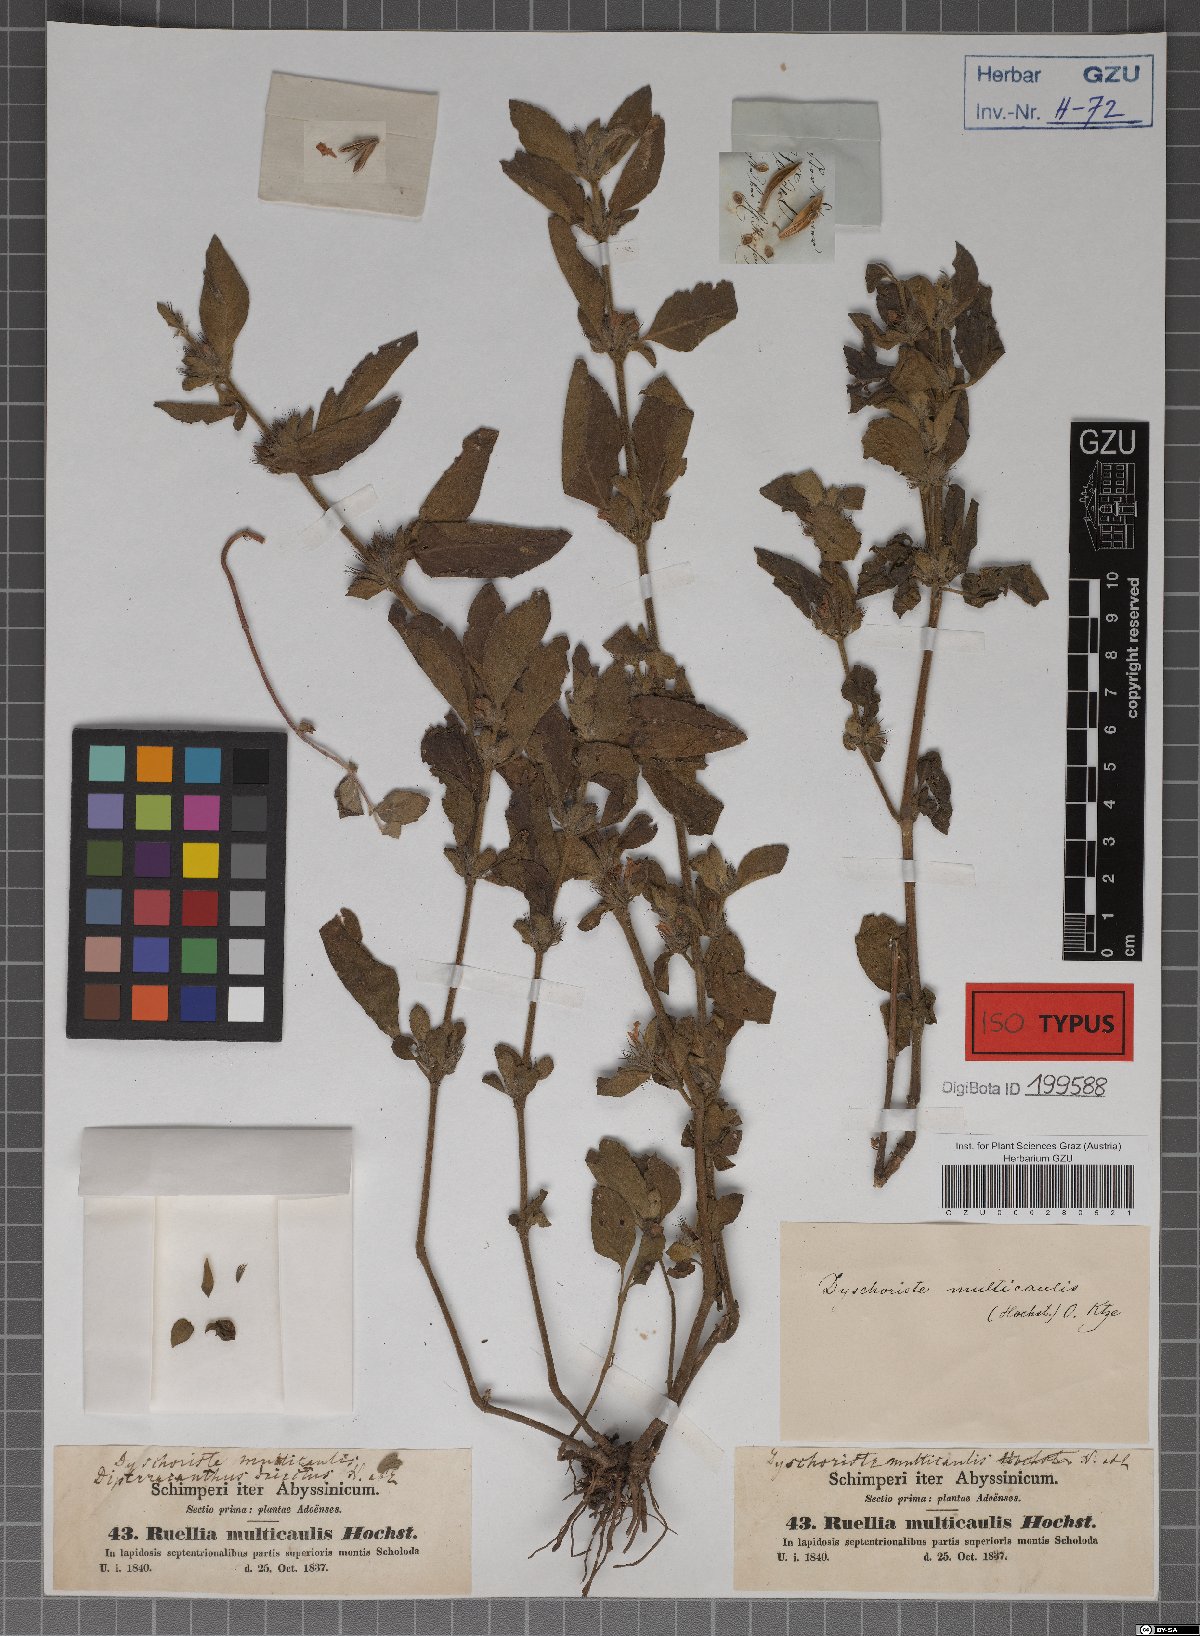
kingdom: Plantae
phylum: Tracheophyta
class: Magnoliopsida
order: Lamiales
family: Acanthaceae
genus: Dyschoriste
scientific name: Dyschoriste multicaulis
